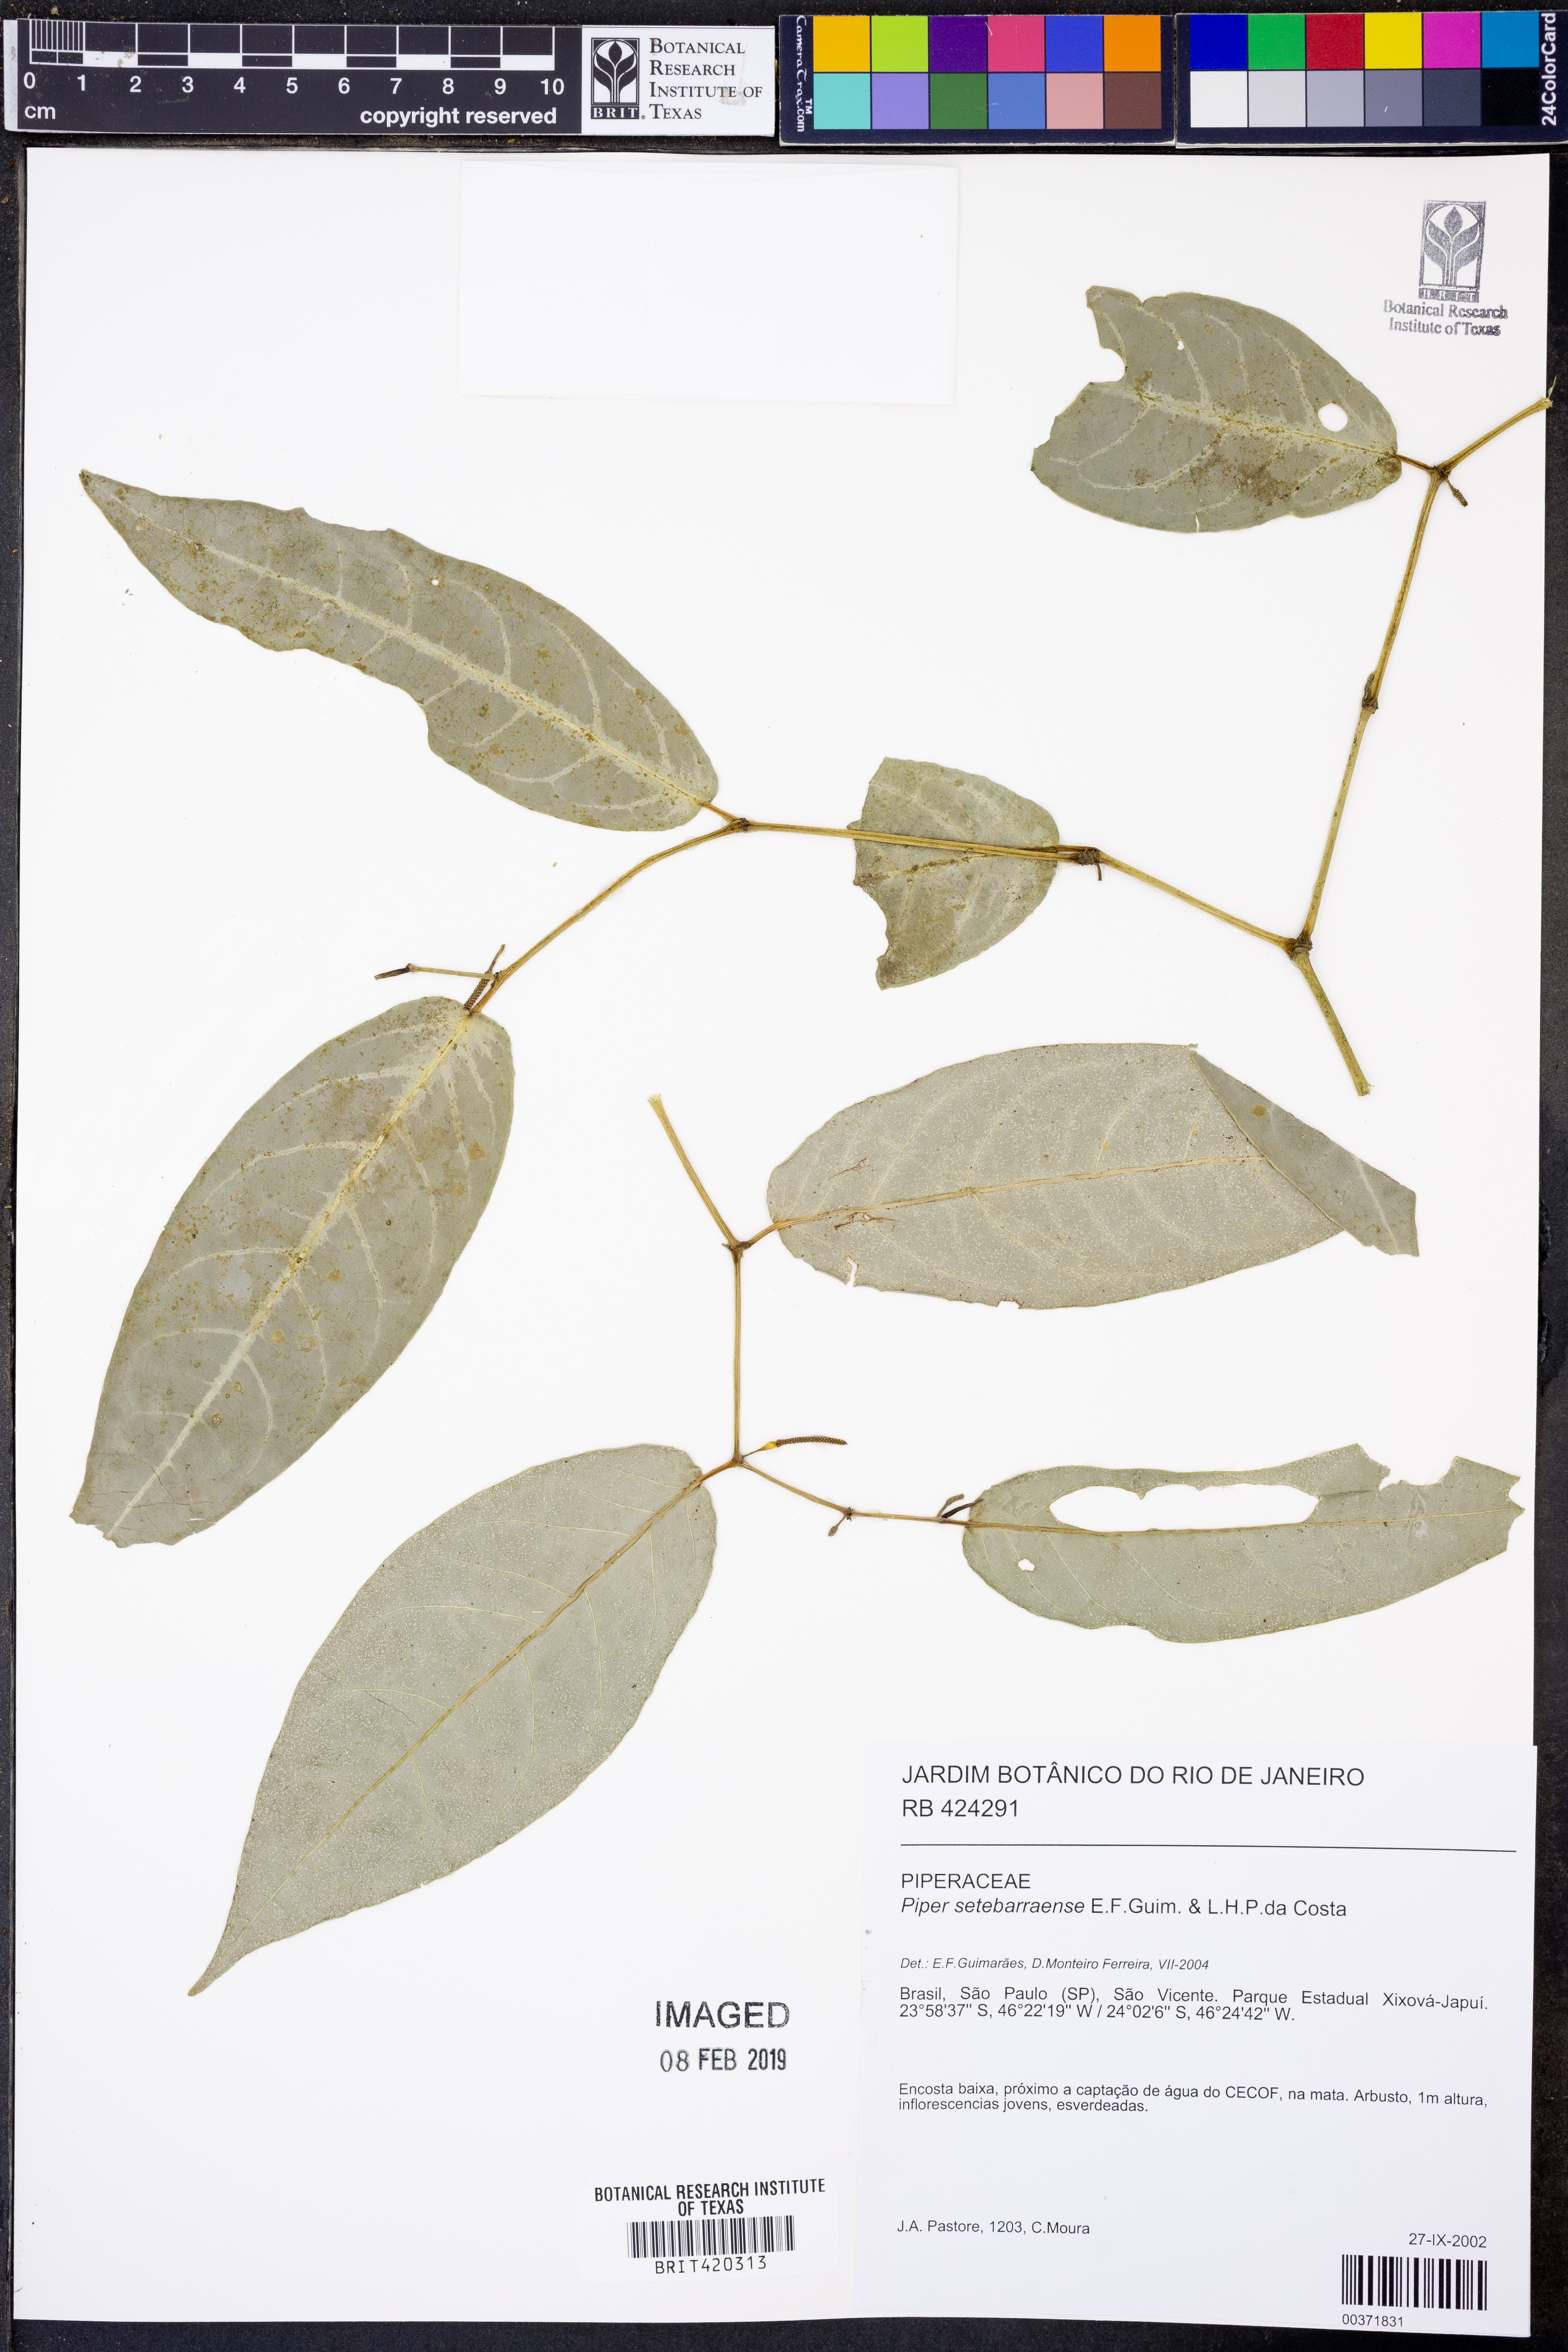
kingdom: Plantae
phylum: Tracheophyta
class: Magnoliopsida
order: Piperales
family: Piperaceae
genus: Piper
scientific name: Piper setebarraense
